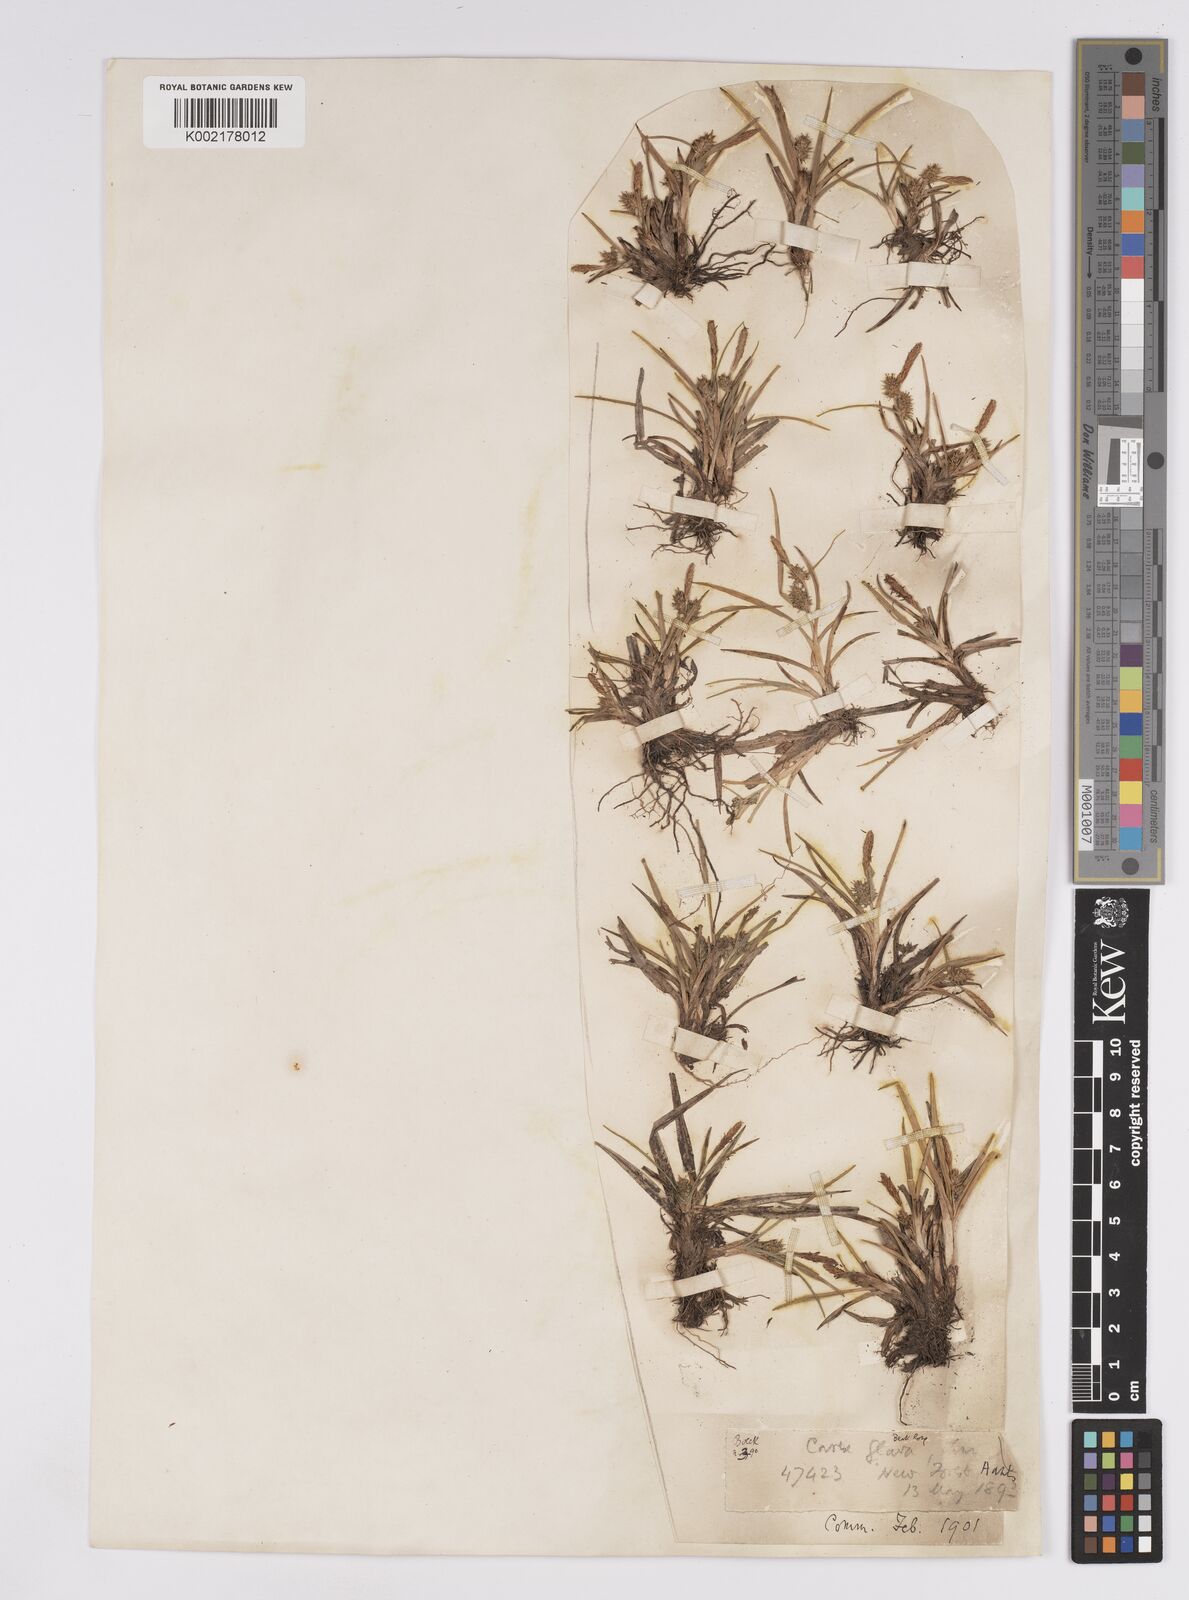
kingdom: Plantae
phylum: Tracheophyta
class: Liliopsida
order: Poales
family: Cyperaceae
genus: Carex
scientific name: Carex demissa
